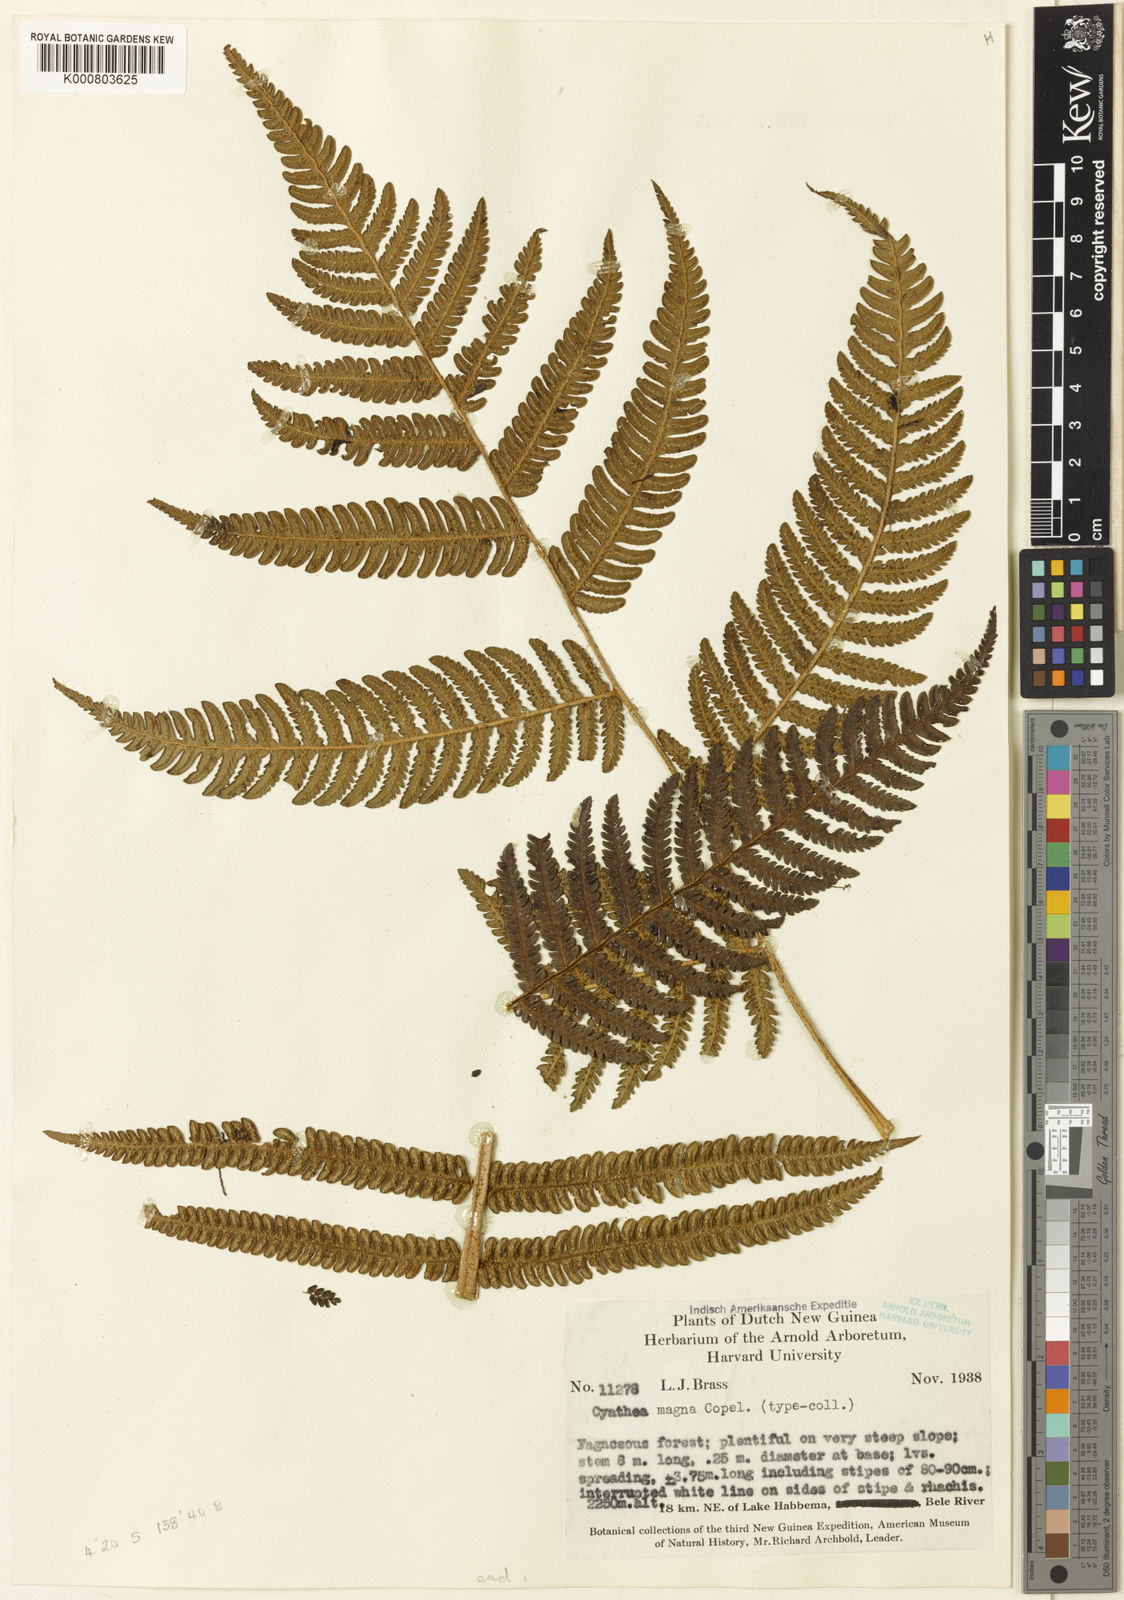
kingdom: Plantae
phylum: Tracheophyta
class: Polypodiopsida
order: Cyatheales
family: Cyatheaceae
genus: Sphaeropteris
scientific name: Sphaeropteris magna
